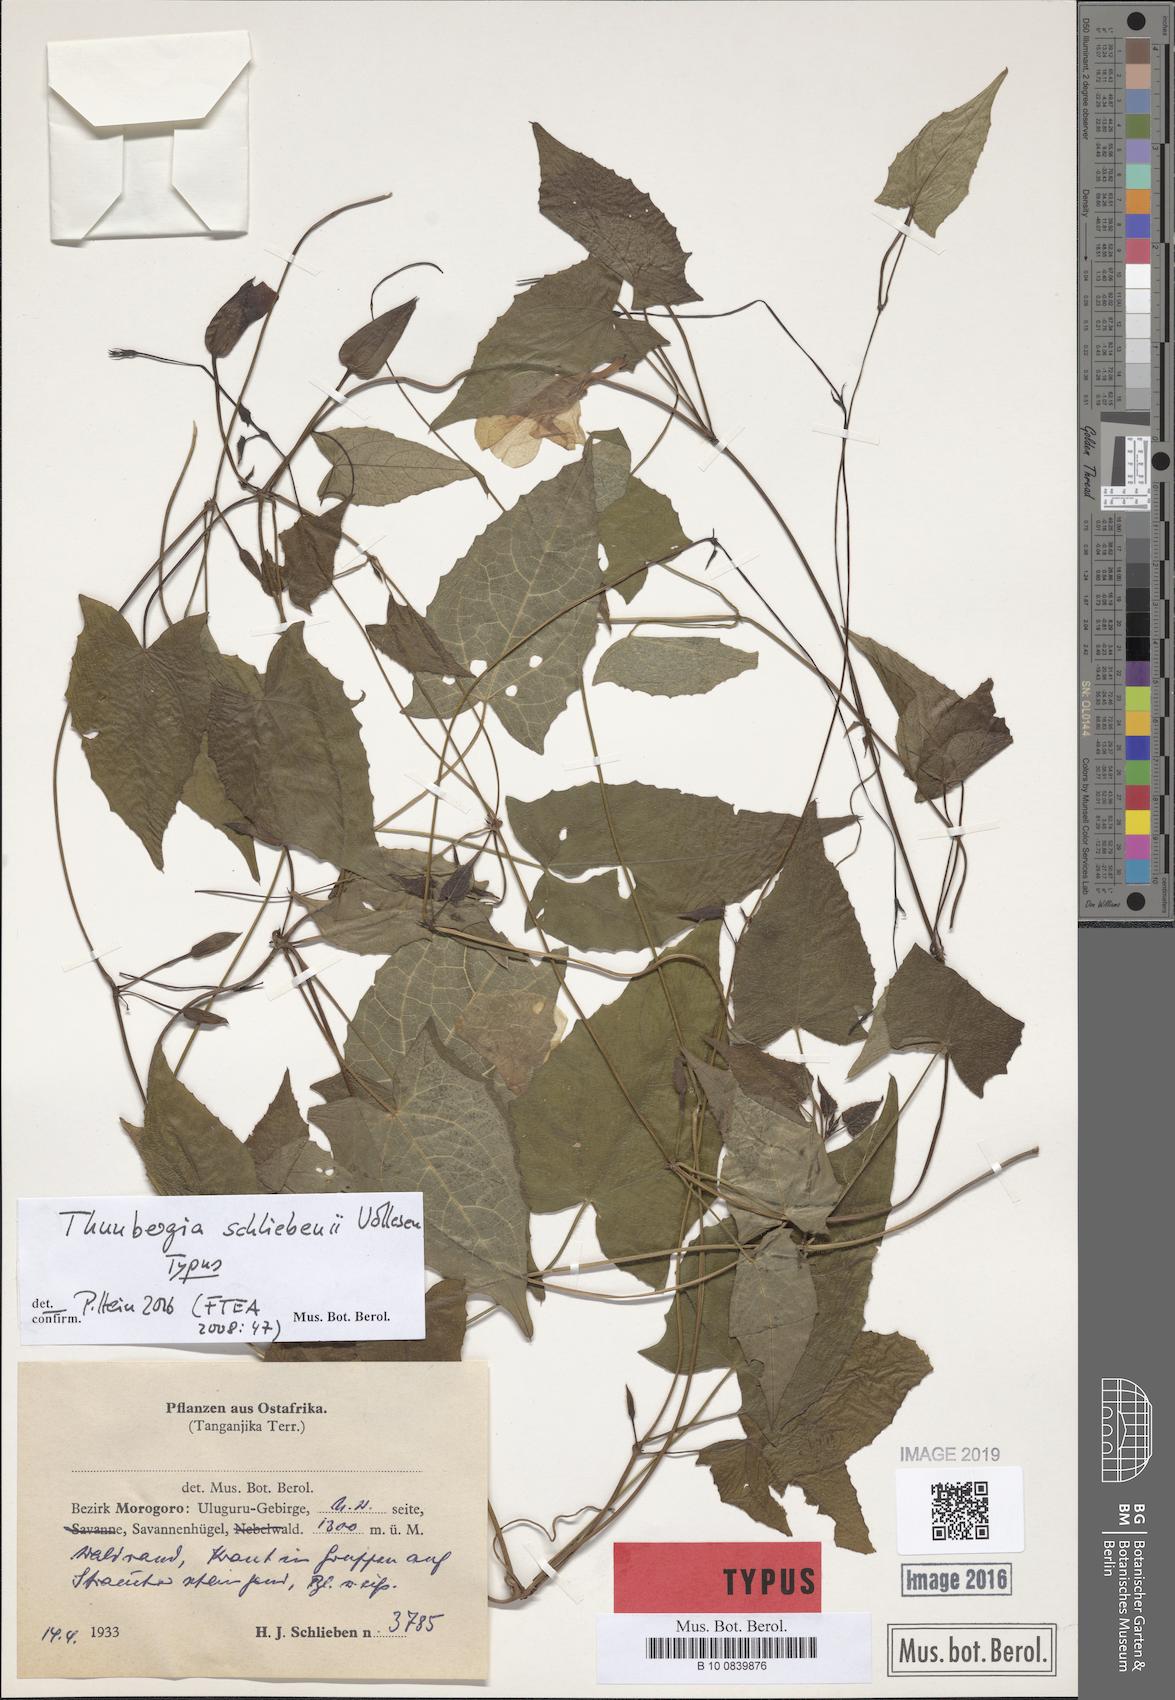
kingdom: Plantae
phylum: Tracheophyta
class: Magnoliopsida
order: Lamiales
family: Acanthaceae
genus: Thunbergia
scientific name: Thunbergia schliebenii
